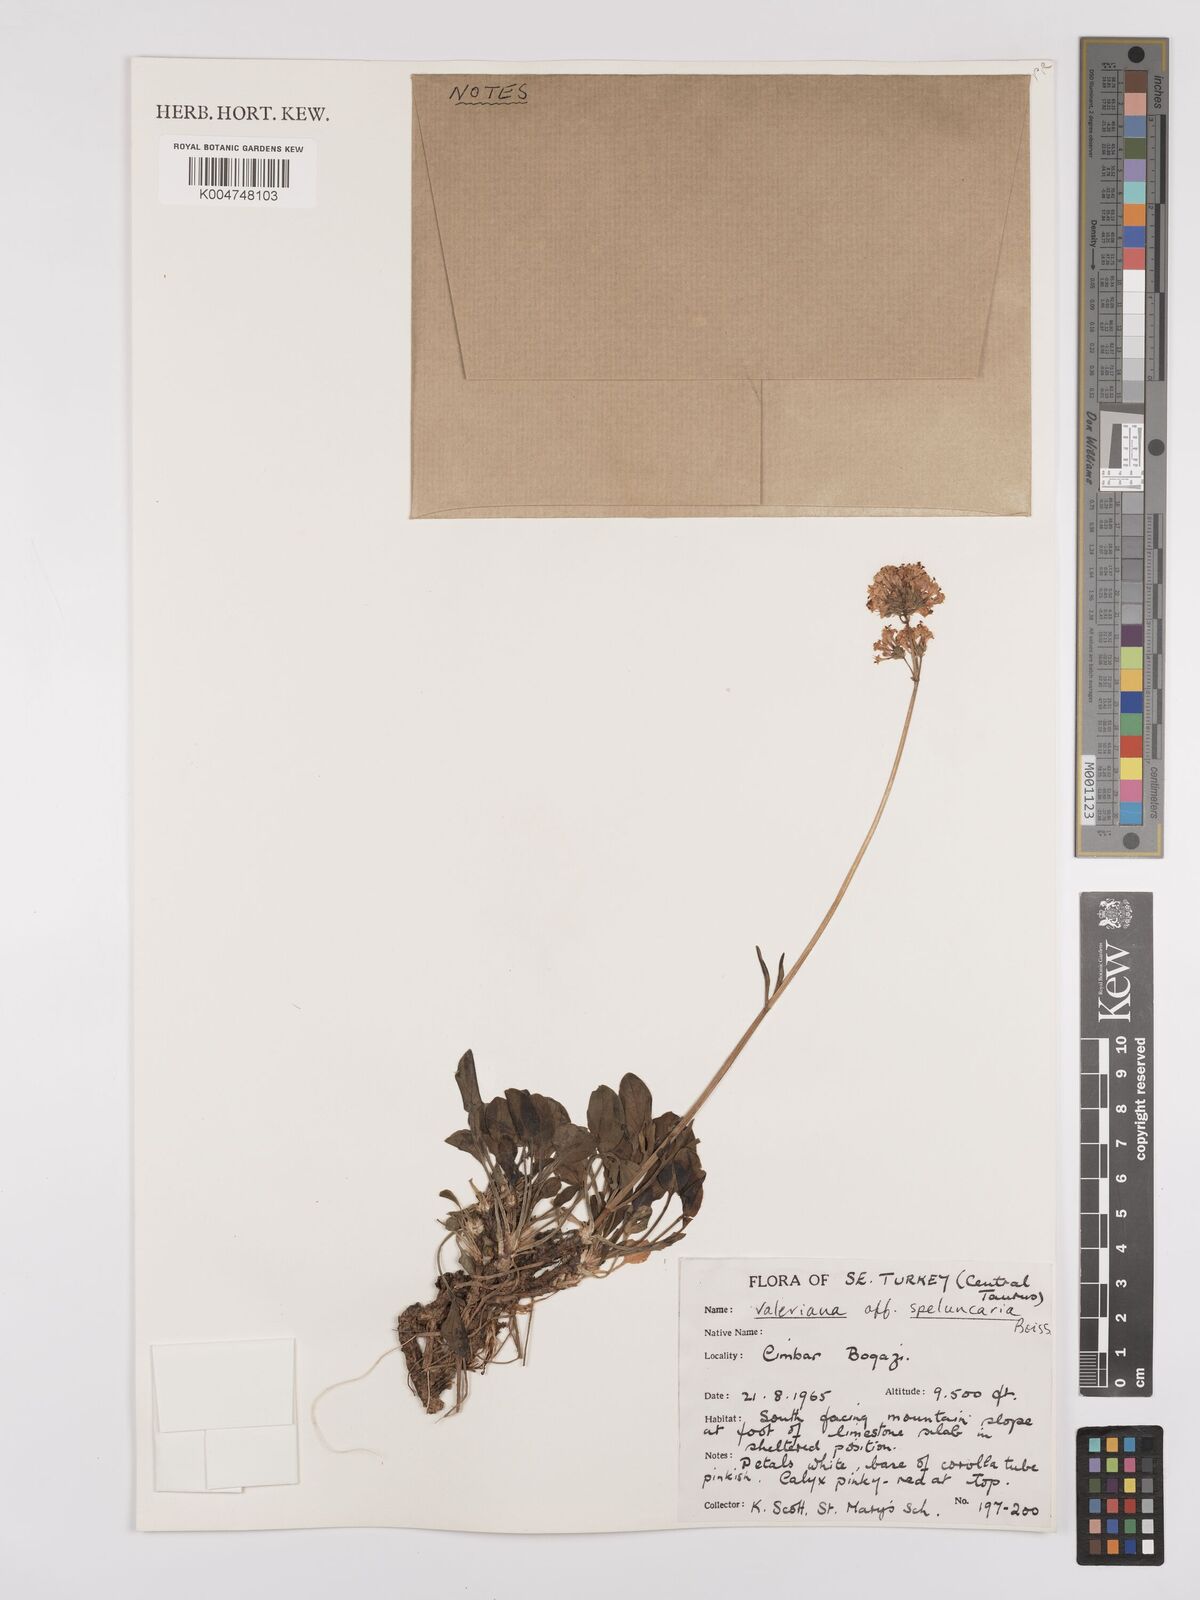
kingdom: Plantae
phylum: Tracheophyta
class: Magnoliopsida
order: Dipsacales
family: Caprifoliaceae
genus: Valeriana
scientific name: Valeriana petrophila
